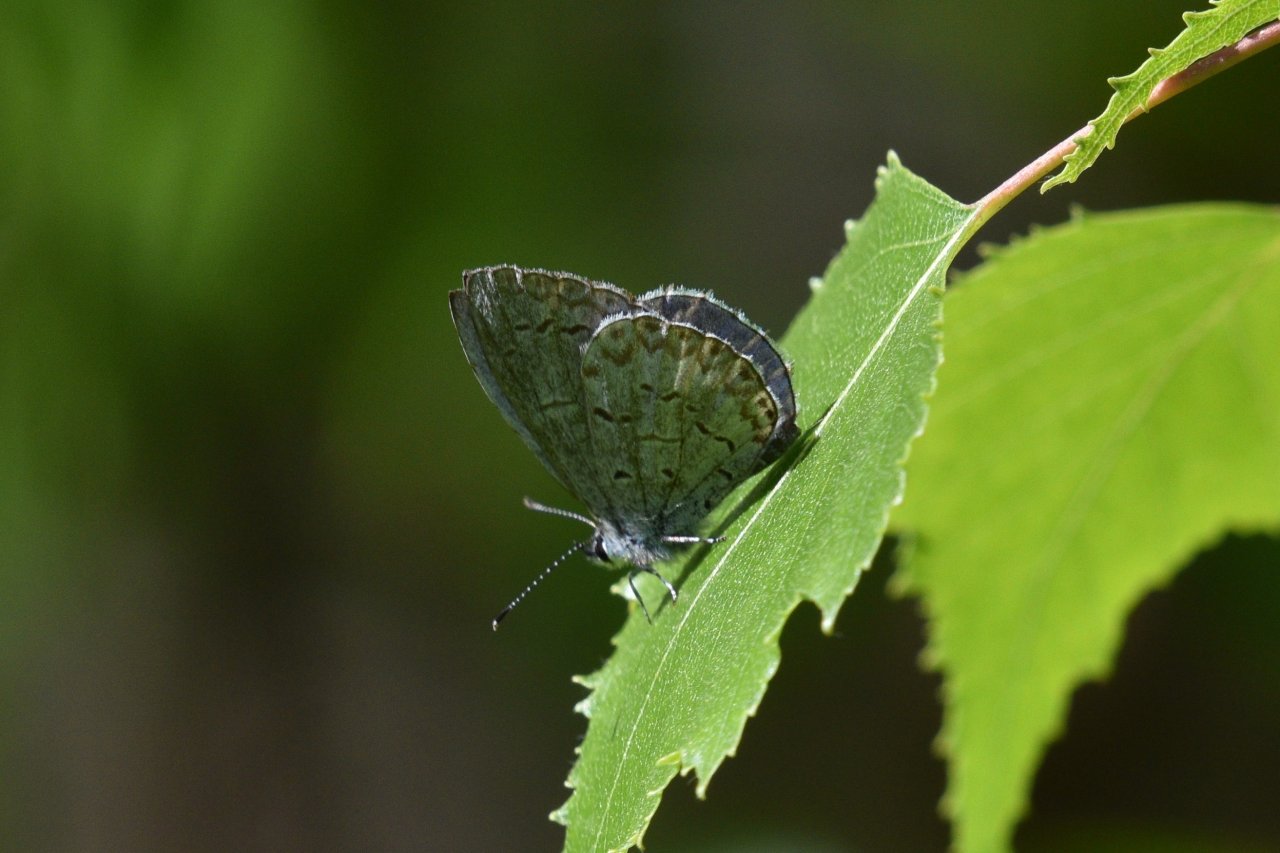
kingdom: Animalia
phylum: Arthropoda
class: Insecta
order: Lepidoptera
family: Lycaenidae
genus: Celastrina
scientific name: Celastrina lucia
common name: Northern Spring Azure
